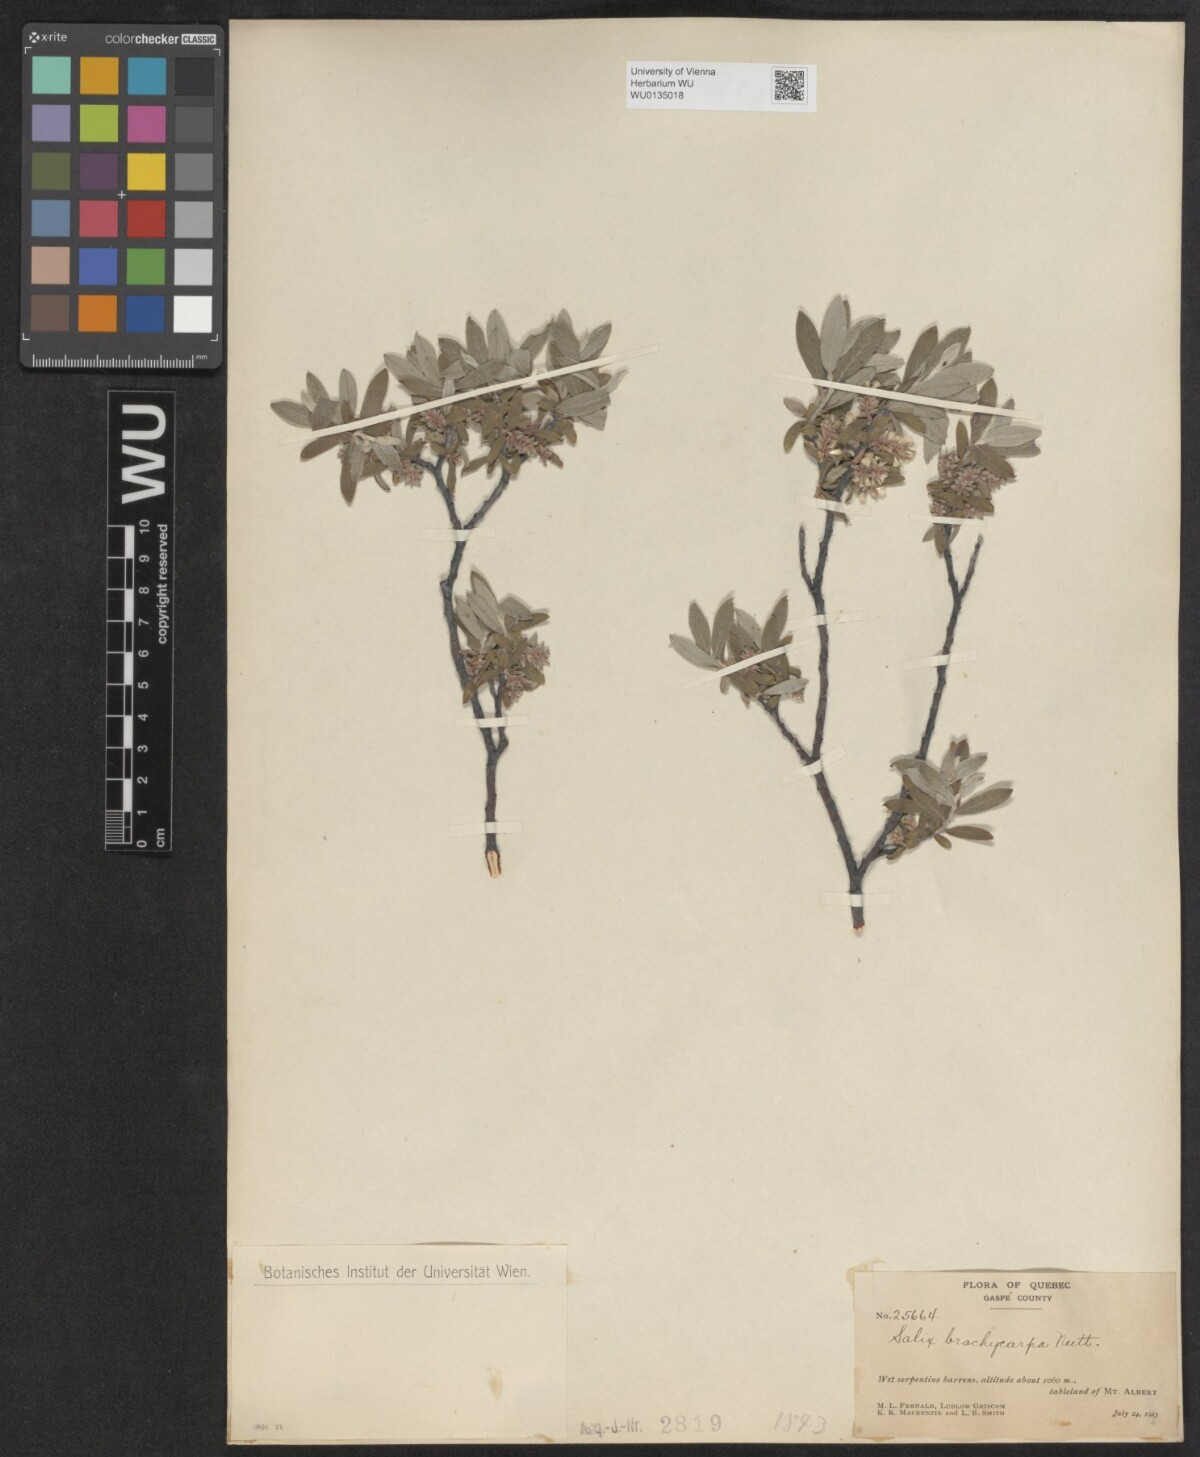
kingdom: Plantae
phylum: Tracheophyta
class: Magnoliopsida
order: Malpighiales
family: Salicaceae
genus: Salix
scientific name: Salix brachycarpa
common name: Barren-ground willow
